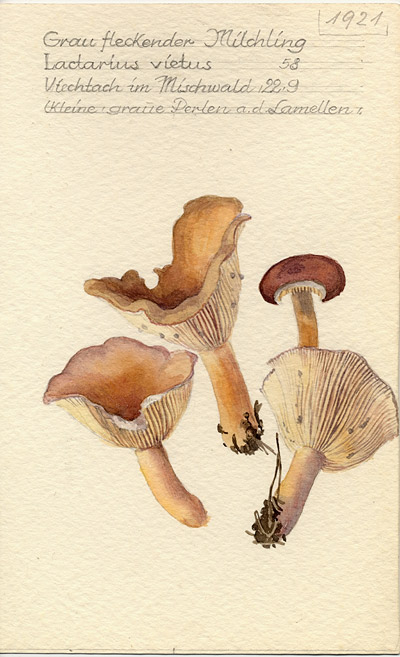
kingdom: Fungi
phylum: Basidiomycota
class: Agaricomycetes
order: Russulales
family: Russulaceae
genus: Lactarius
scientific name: Lactarius vietus
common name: Grey milk-cap
